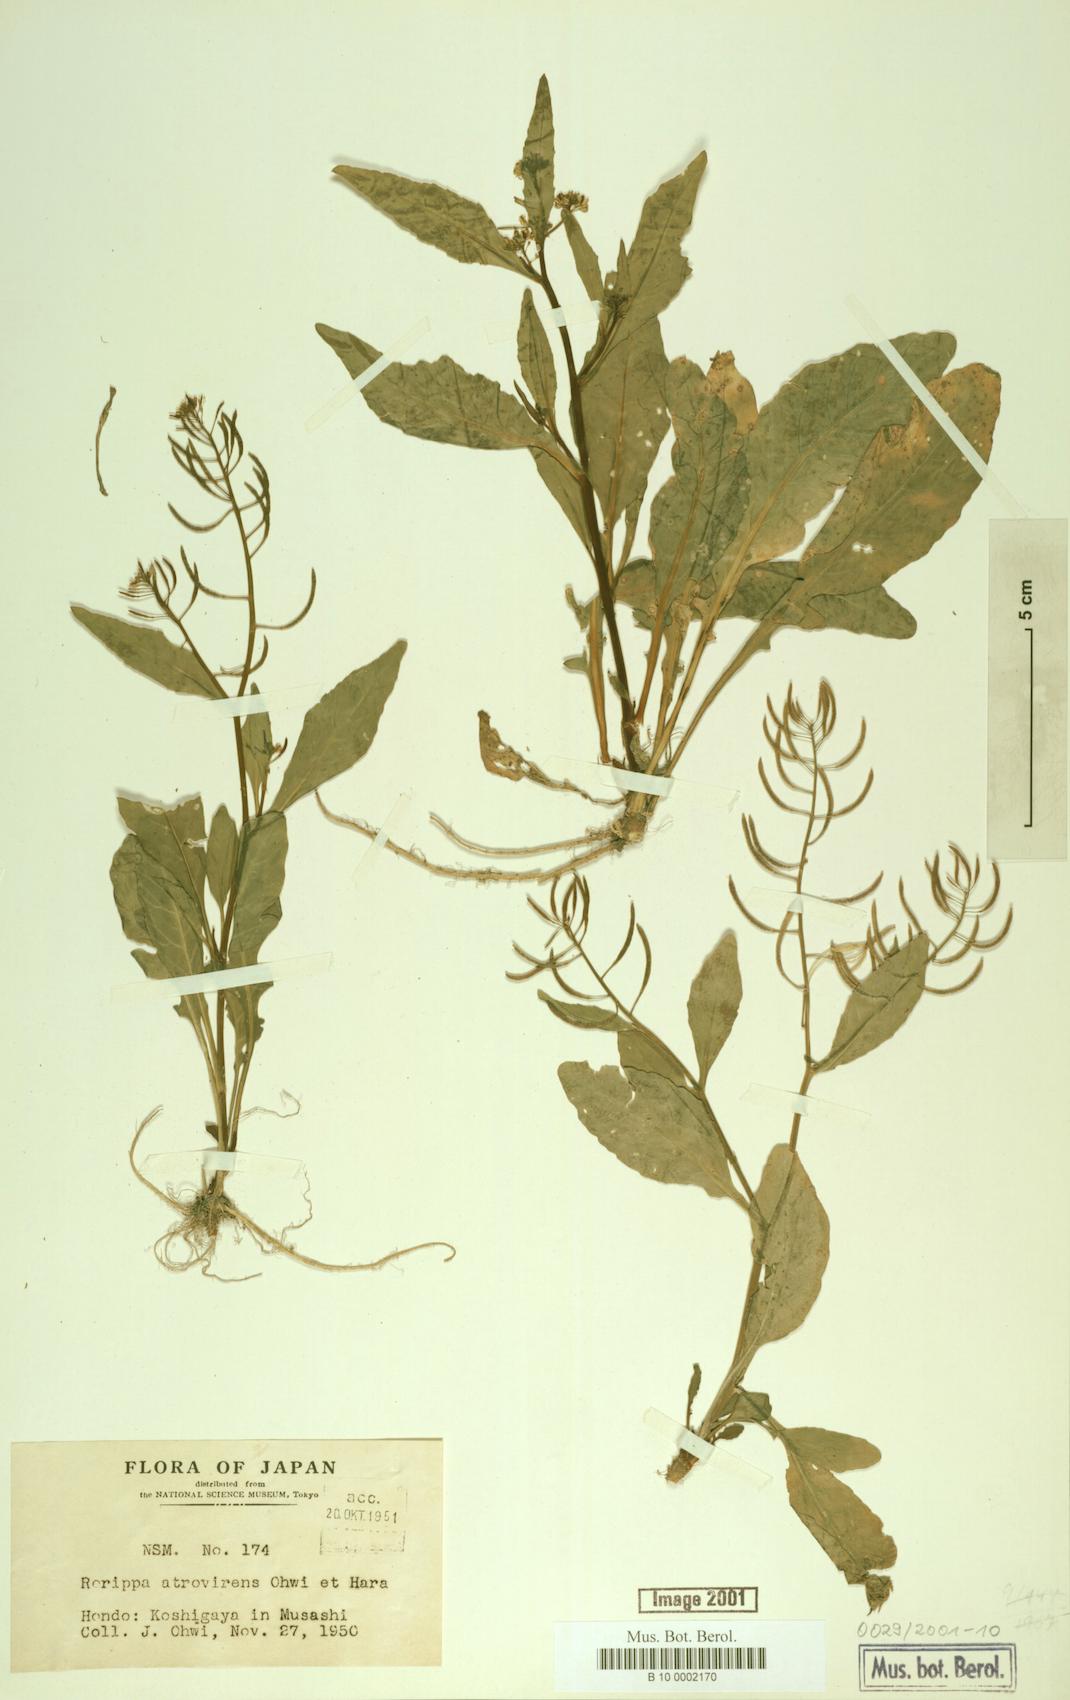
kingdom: Plantae
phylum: Tracheophyta
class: Magnoliopsida
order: Brassicales
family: Brassicaceae
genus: Rorippa
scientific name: Rorippa indica
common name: Variableleaf yellowcress
